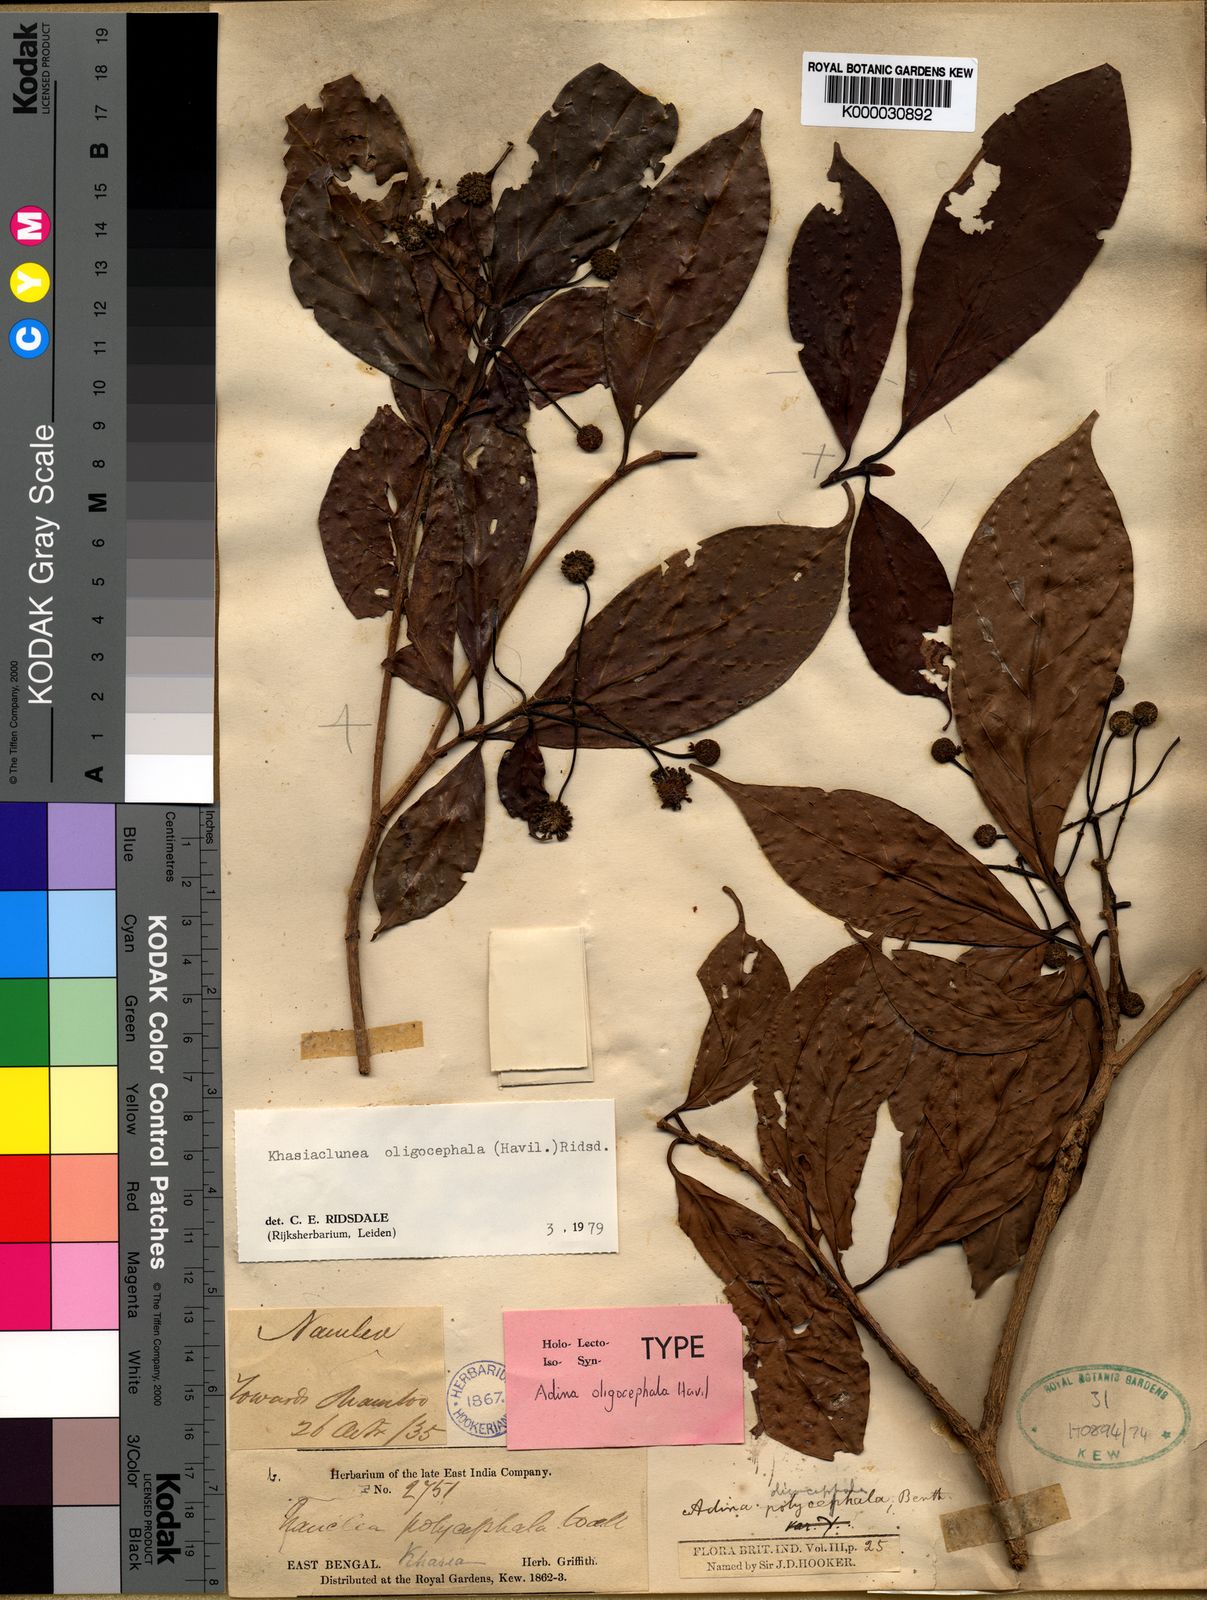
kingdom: Plantae
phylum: Tracheophyta
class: Magnoliopsida
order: Gentianales
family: Rubiaceae
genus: Khasiaclunea
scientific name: Khasiaclunea oligocephala
